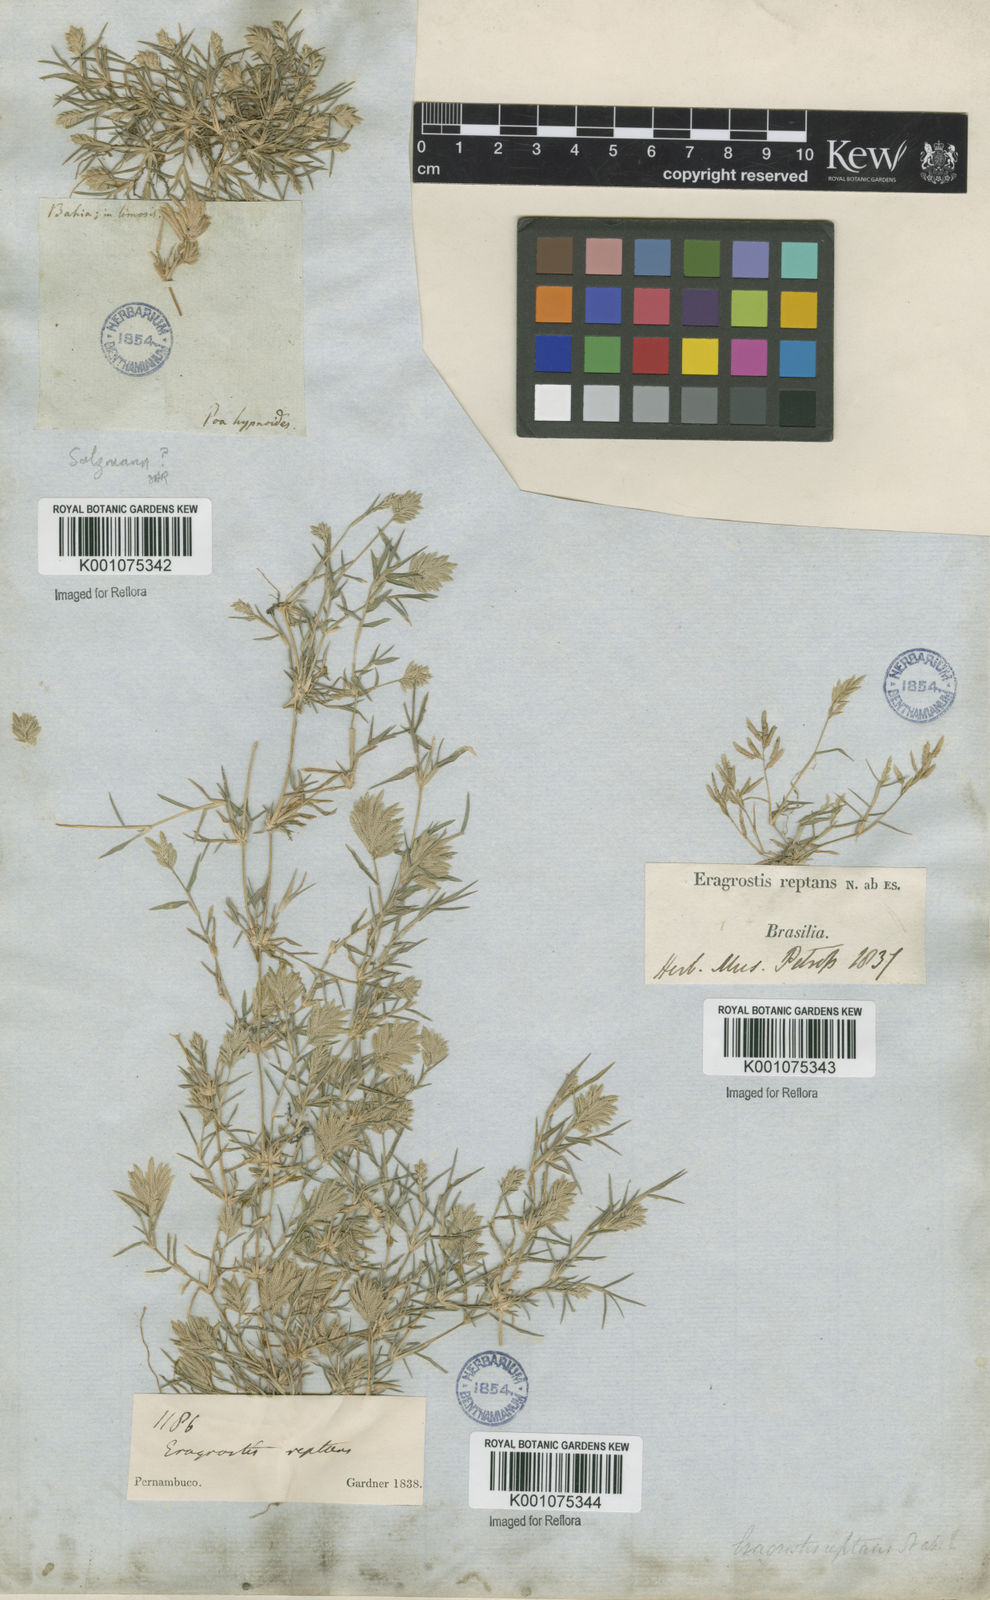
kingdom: Plantae
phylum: Tracheophyta
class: Liliopsida
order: Poales
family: Poaceae
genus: Eragrostis
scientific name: Eragrostis
